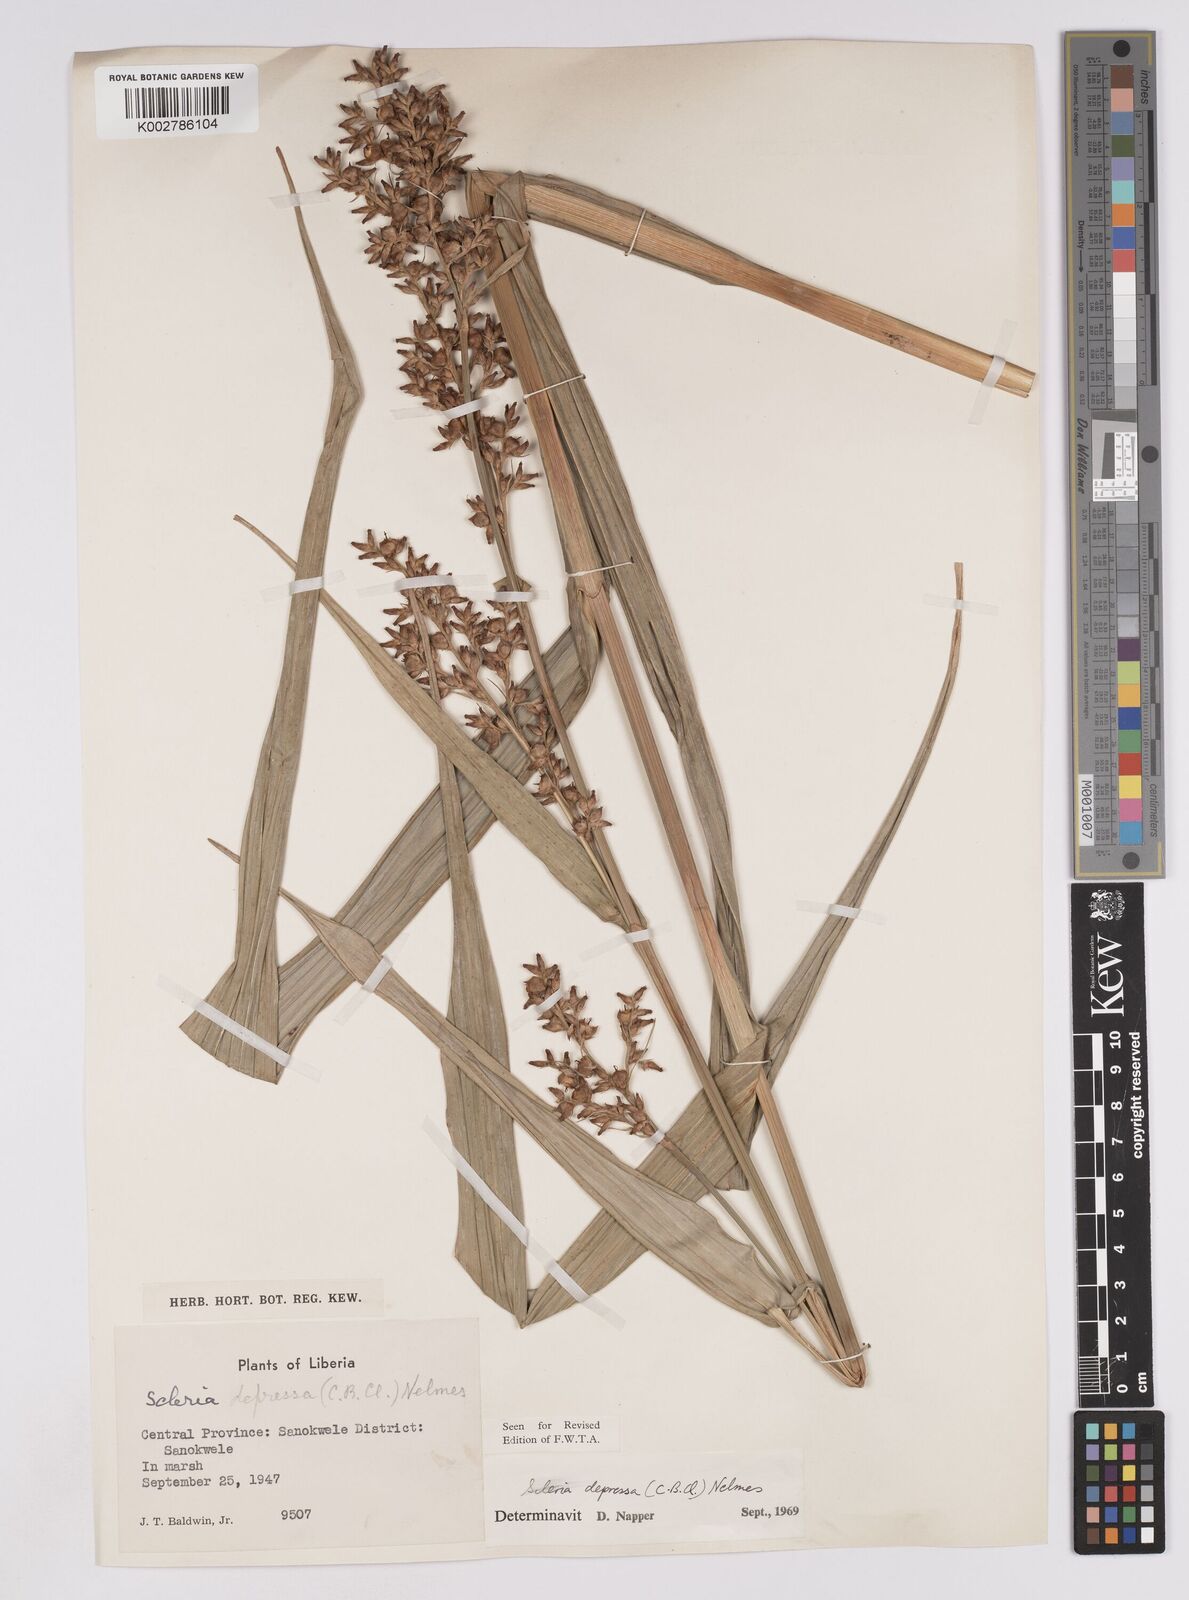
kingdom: Plantae
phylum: Tracheophyta
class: Liliopsida
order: Poales
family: Cyperaceae
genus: Scleria
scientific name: Scleria depressa
